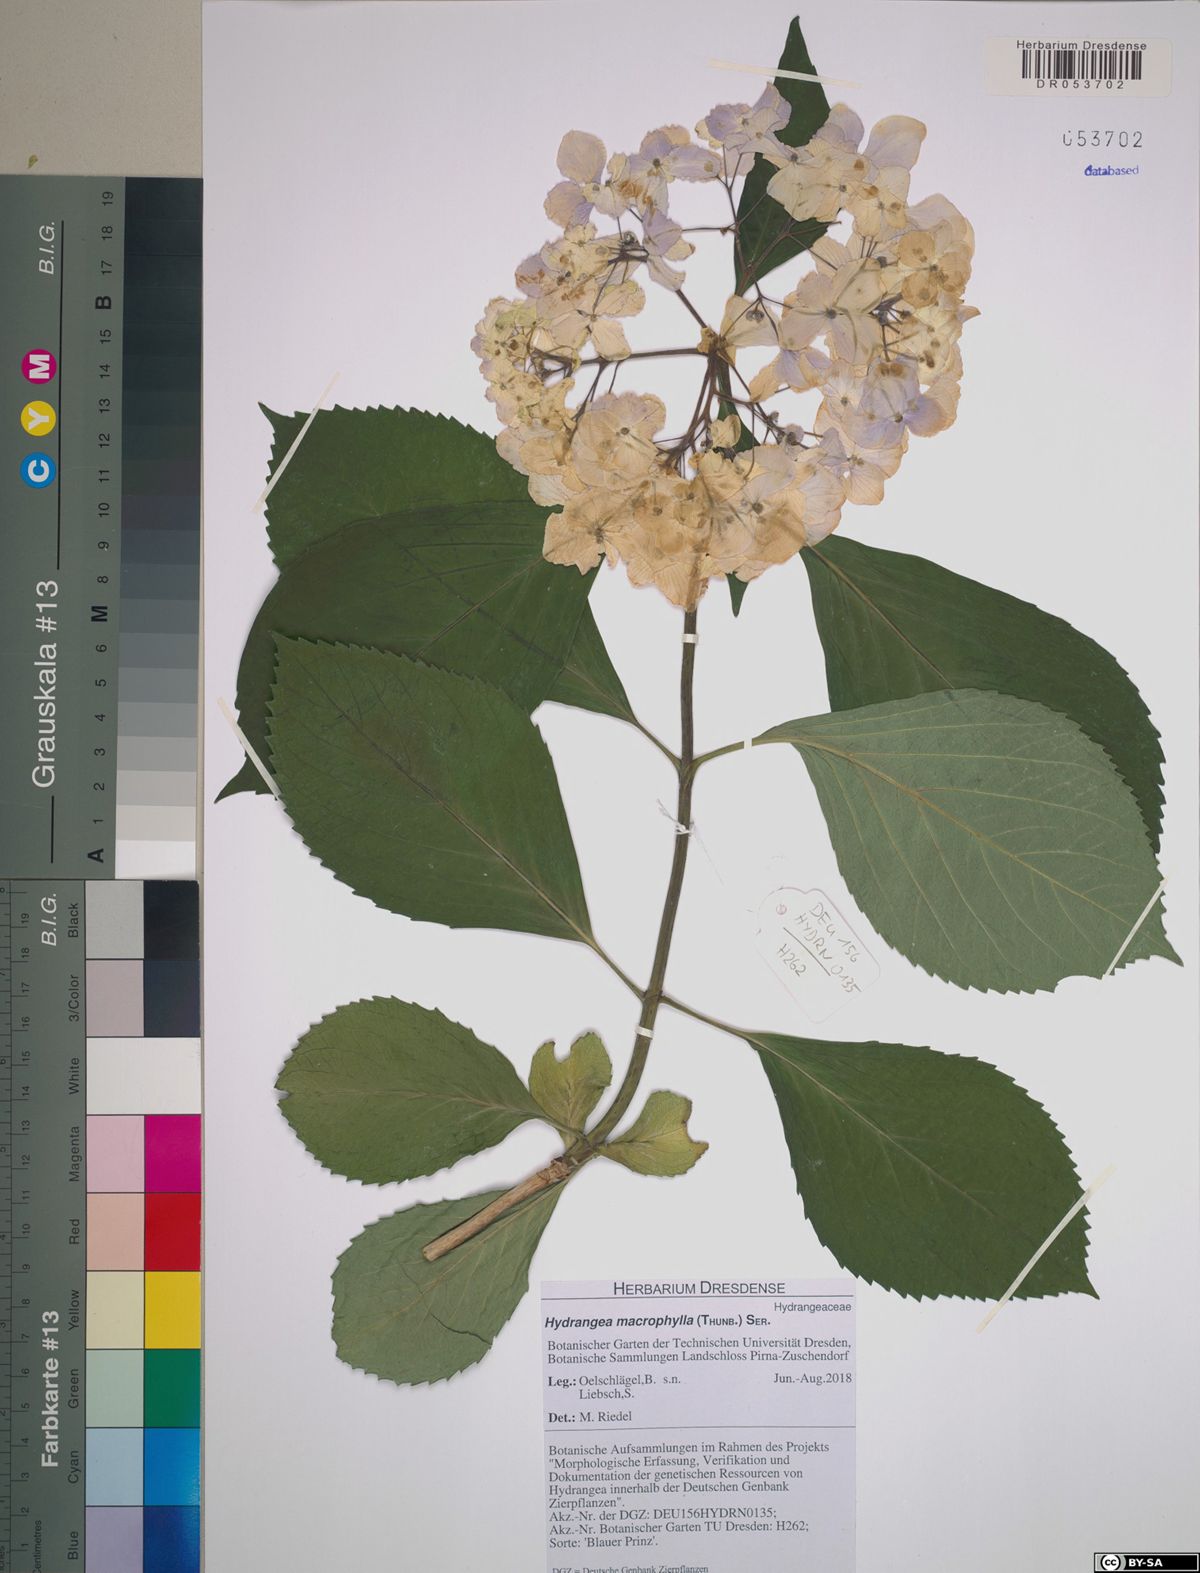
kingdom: Plantae
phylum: Tracheophyta
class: Magnoliopsida
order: Cornales
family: Hydrangeaceae
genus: Hydrangea
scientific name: Hydrangea macrophylla
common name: Hydrangea
